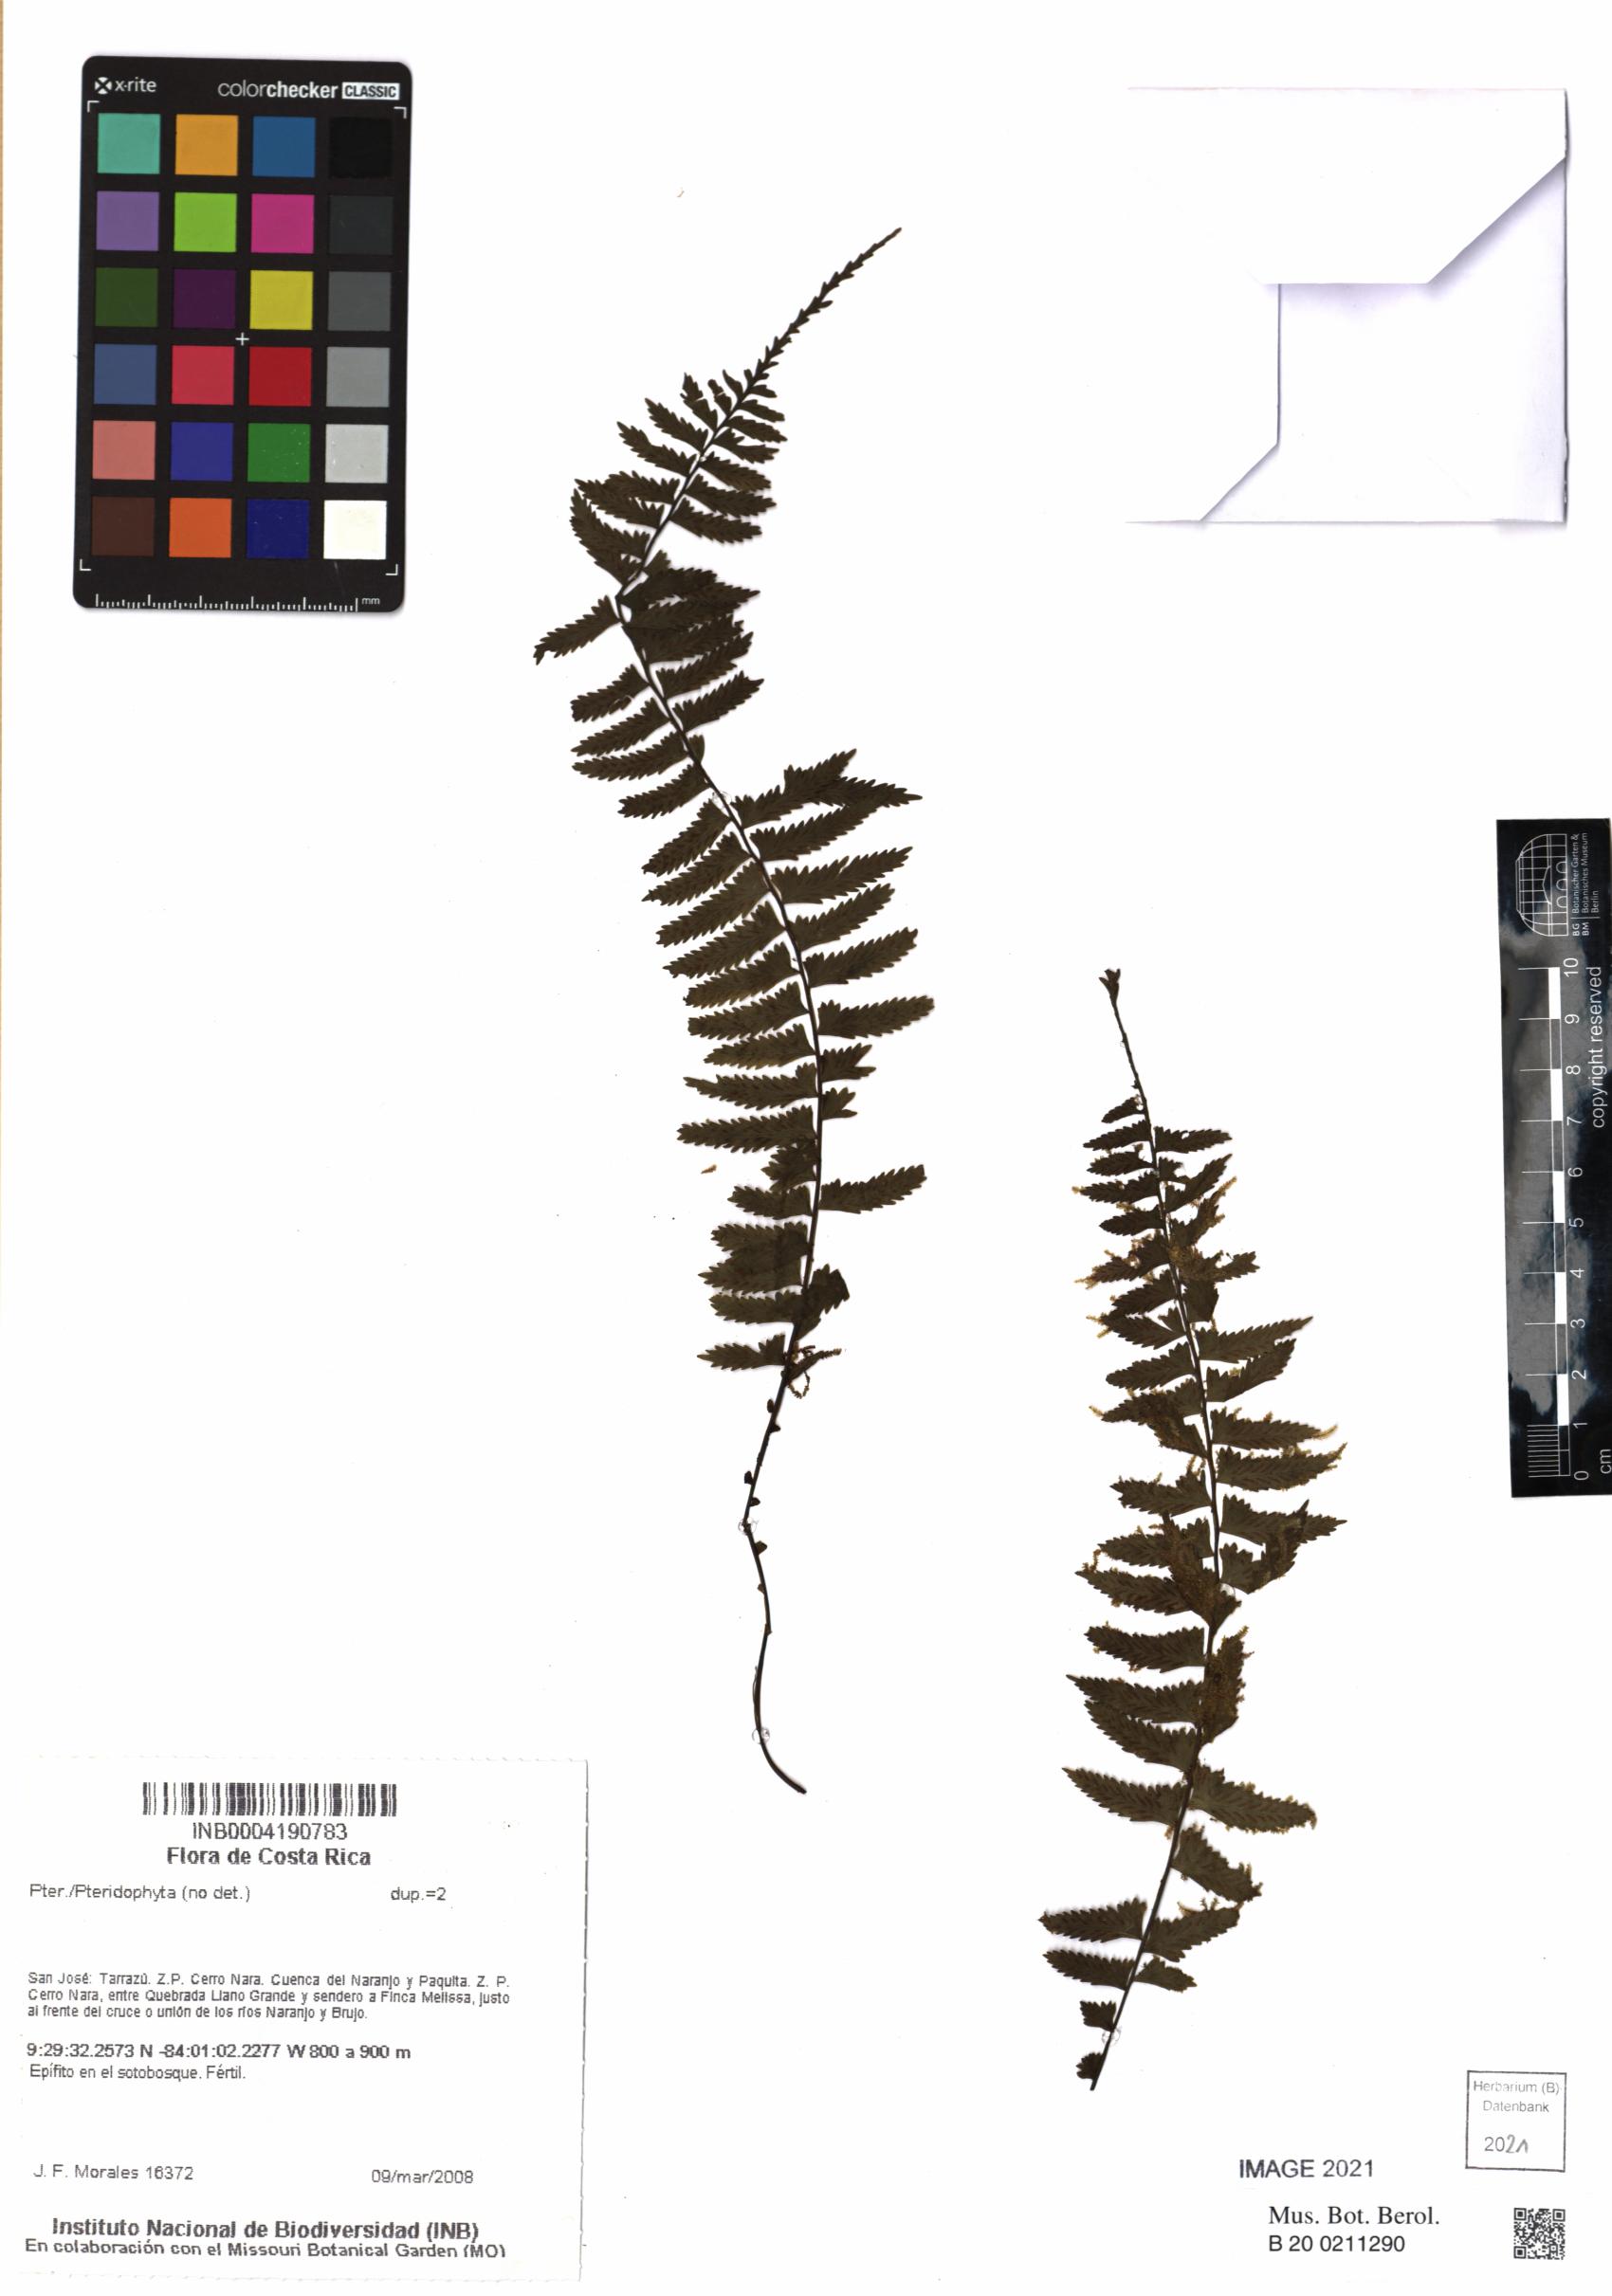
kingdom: Plantae
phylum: Tracheophyta
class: Polypodiopsida
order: Polypodiales
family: Aspleniaceae
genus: Asplenium
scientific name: Asplenium harpeodes
